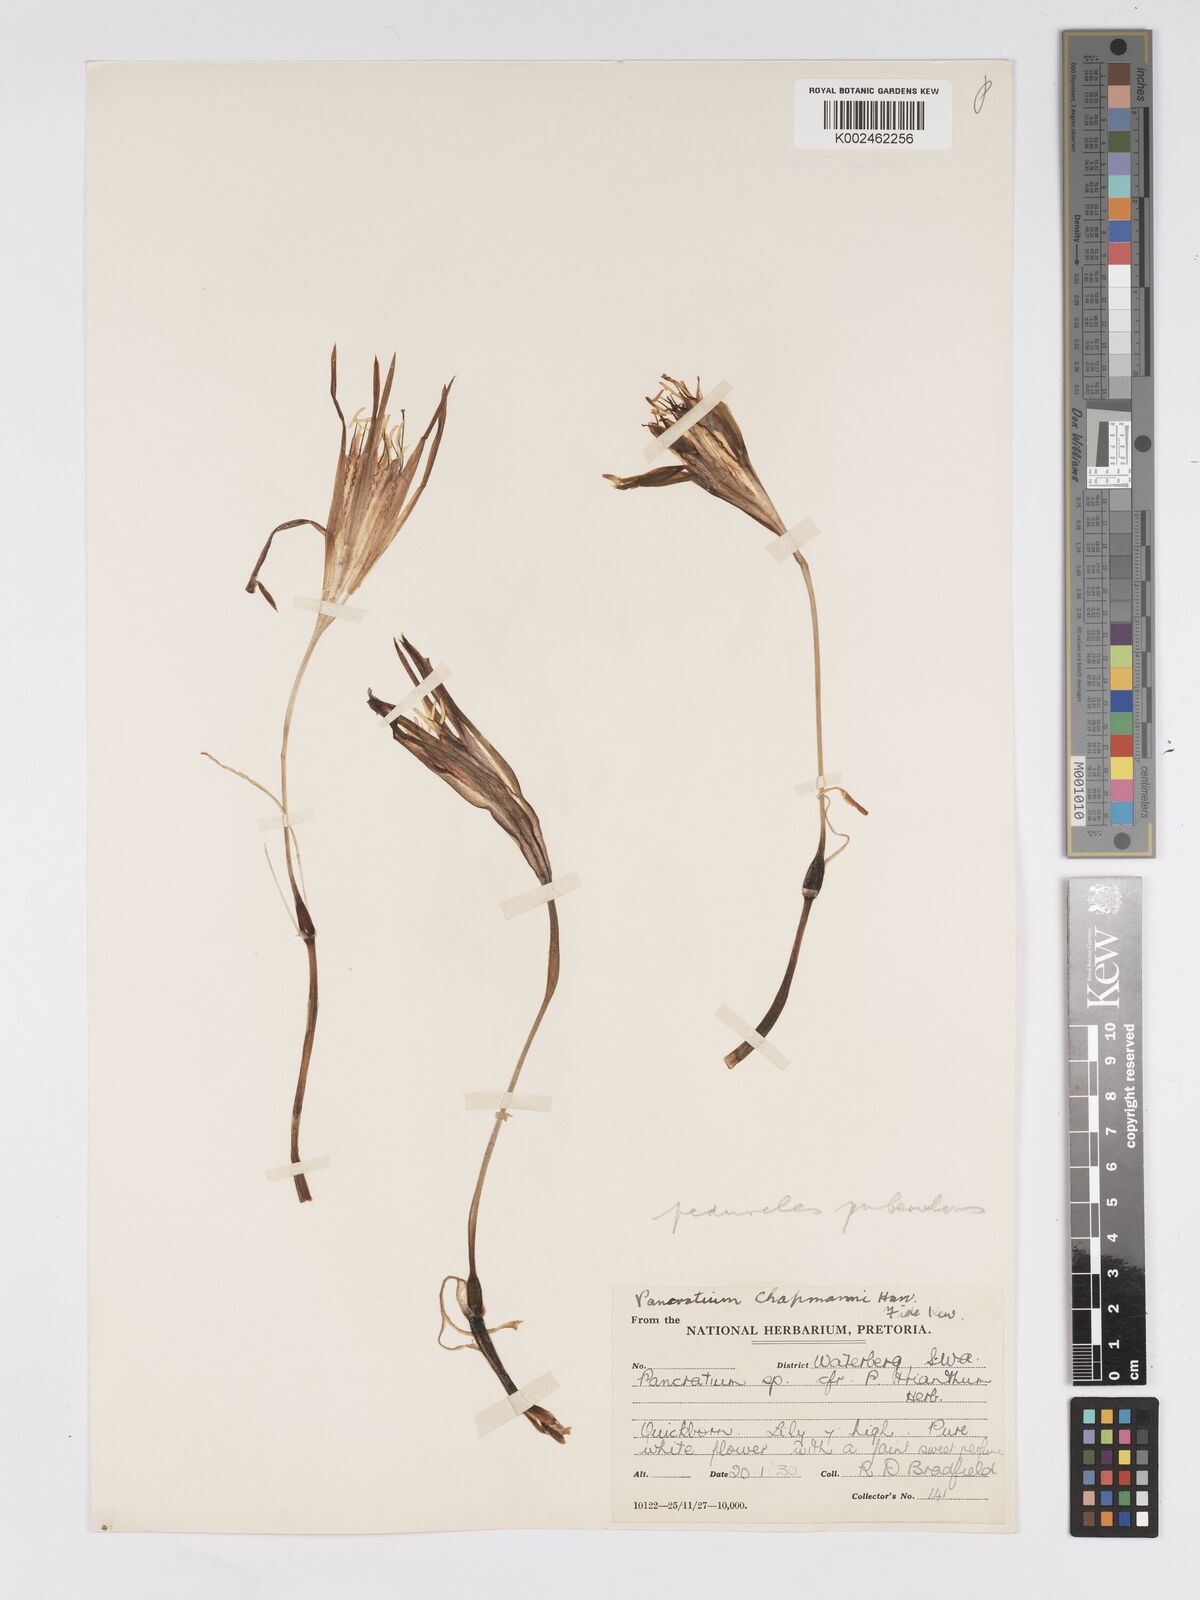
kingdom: Plantae
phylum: Tracheophyta
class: Liliopsida
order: Asparagales
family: Amaryllidaceae
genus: Pancratium
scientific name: Pancratium tenuifolium
